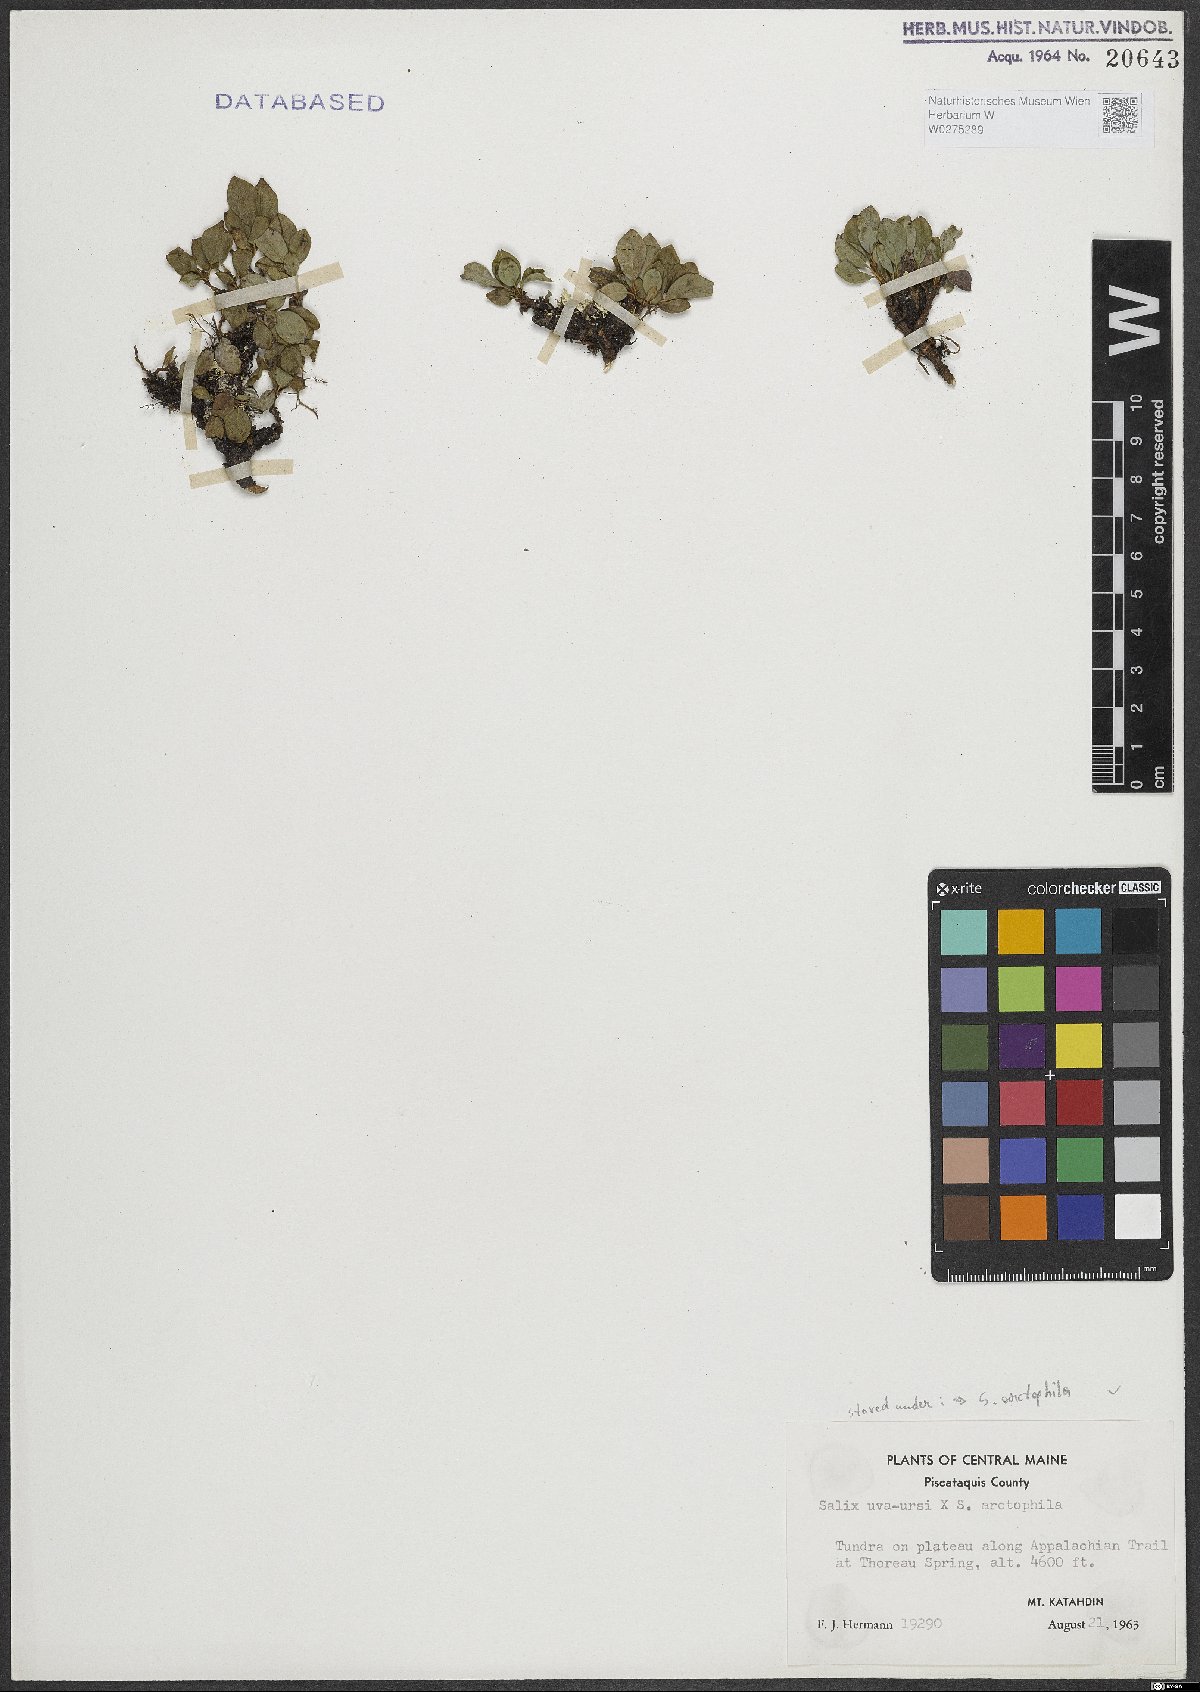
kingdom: Plantae
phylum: Tracheophyta
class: Magnoliopsida
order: Malpighiales
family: Salicaceae
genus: Salix
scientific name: Salix arctophila
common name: Greenland willow
